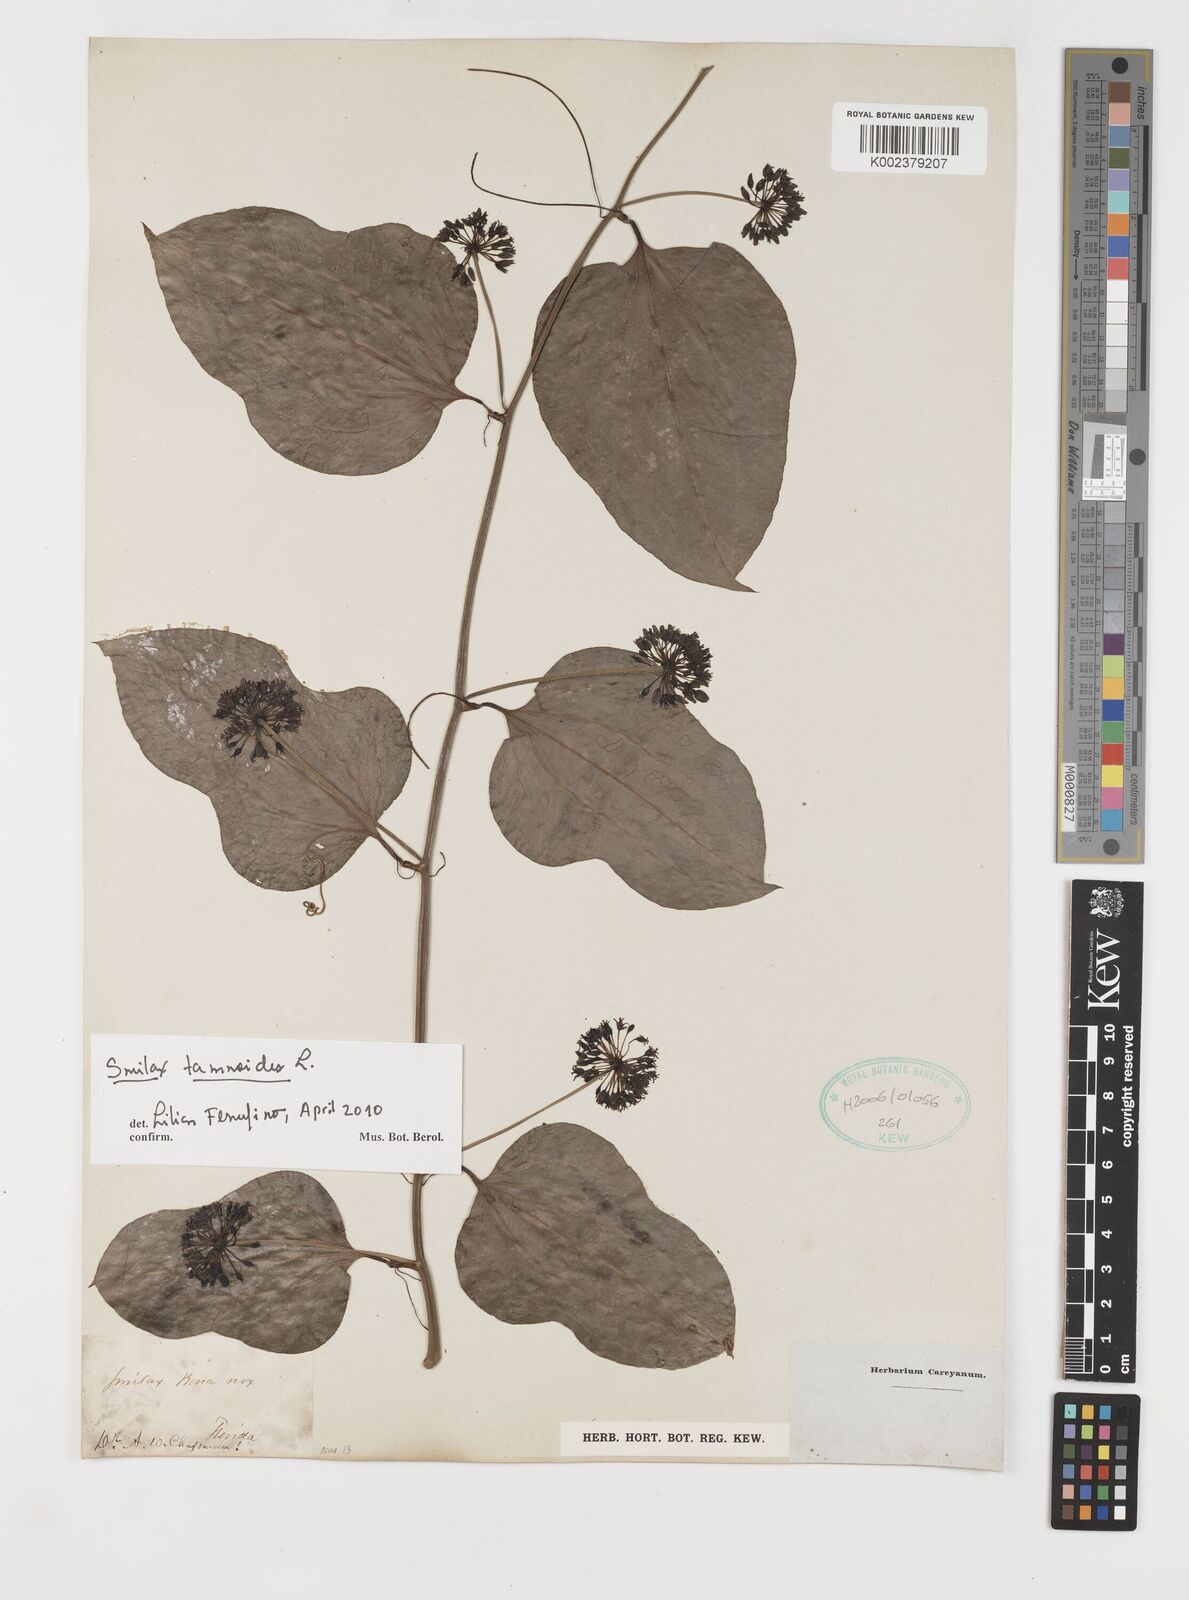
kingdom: Plantae
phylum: Tracheophyta
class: Liliopsida
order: Liliales
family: Smilacaceae
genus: Smilax
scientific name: Smilax pseudochina
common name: False chinaroot
